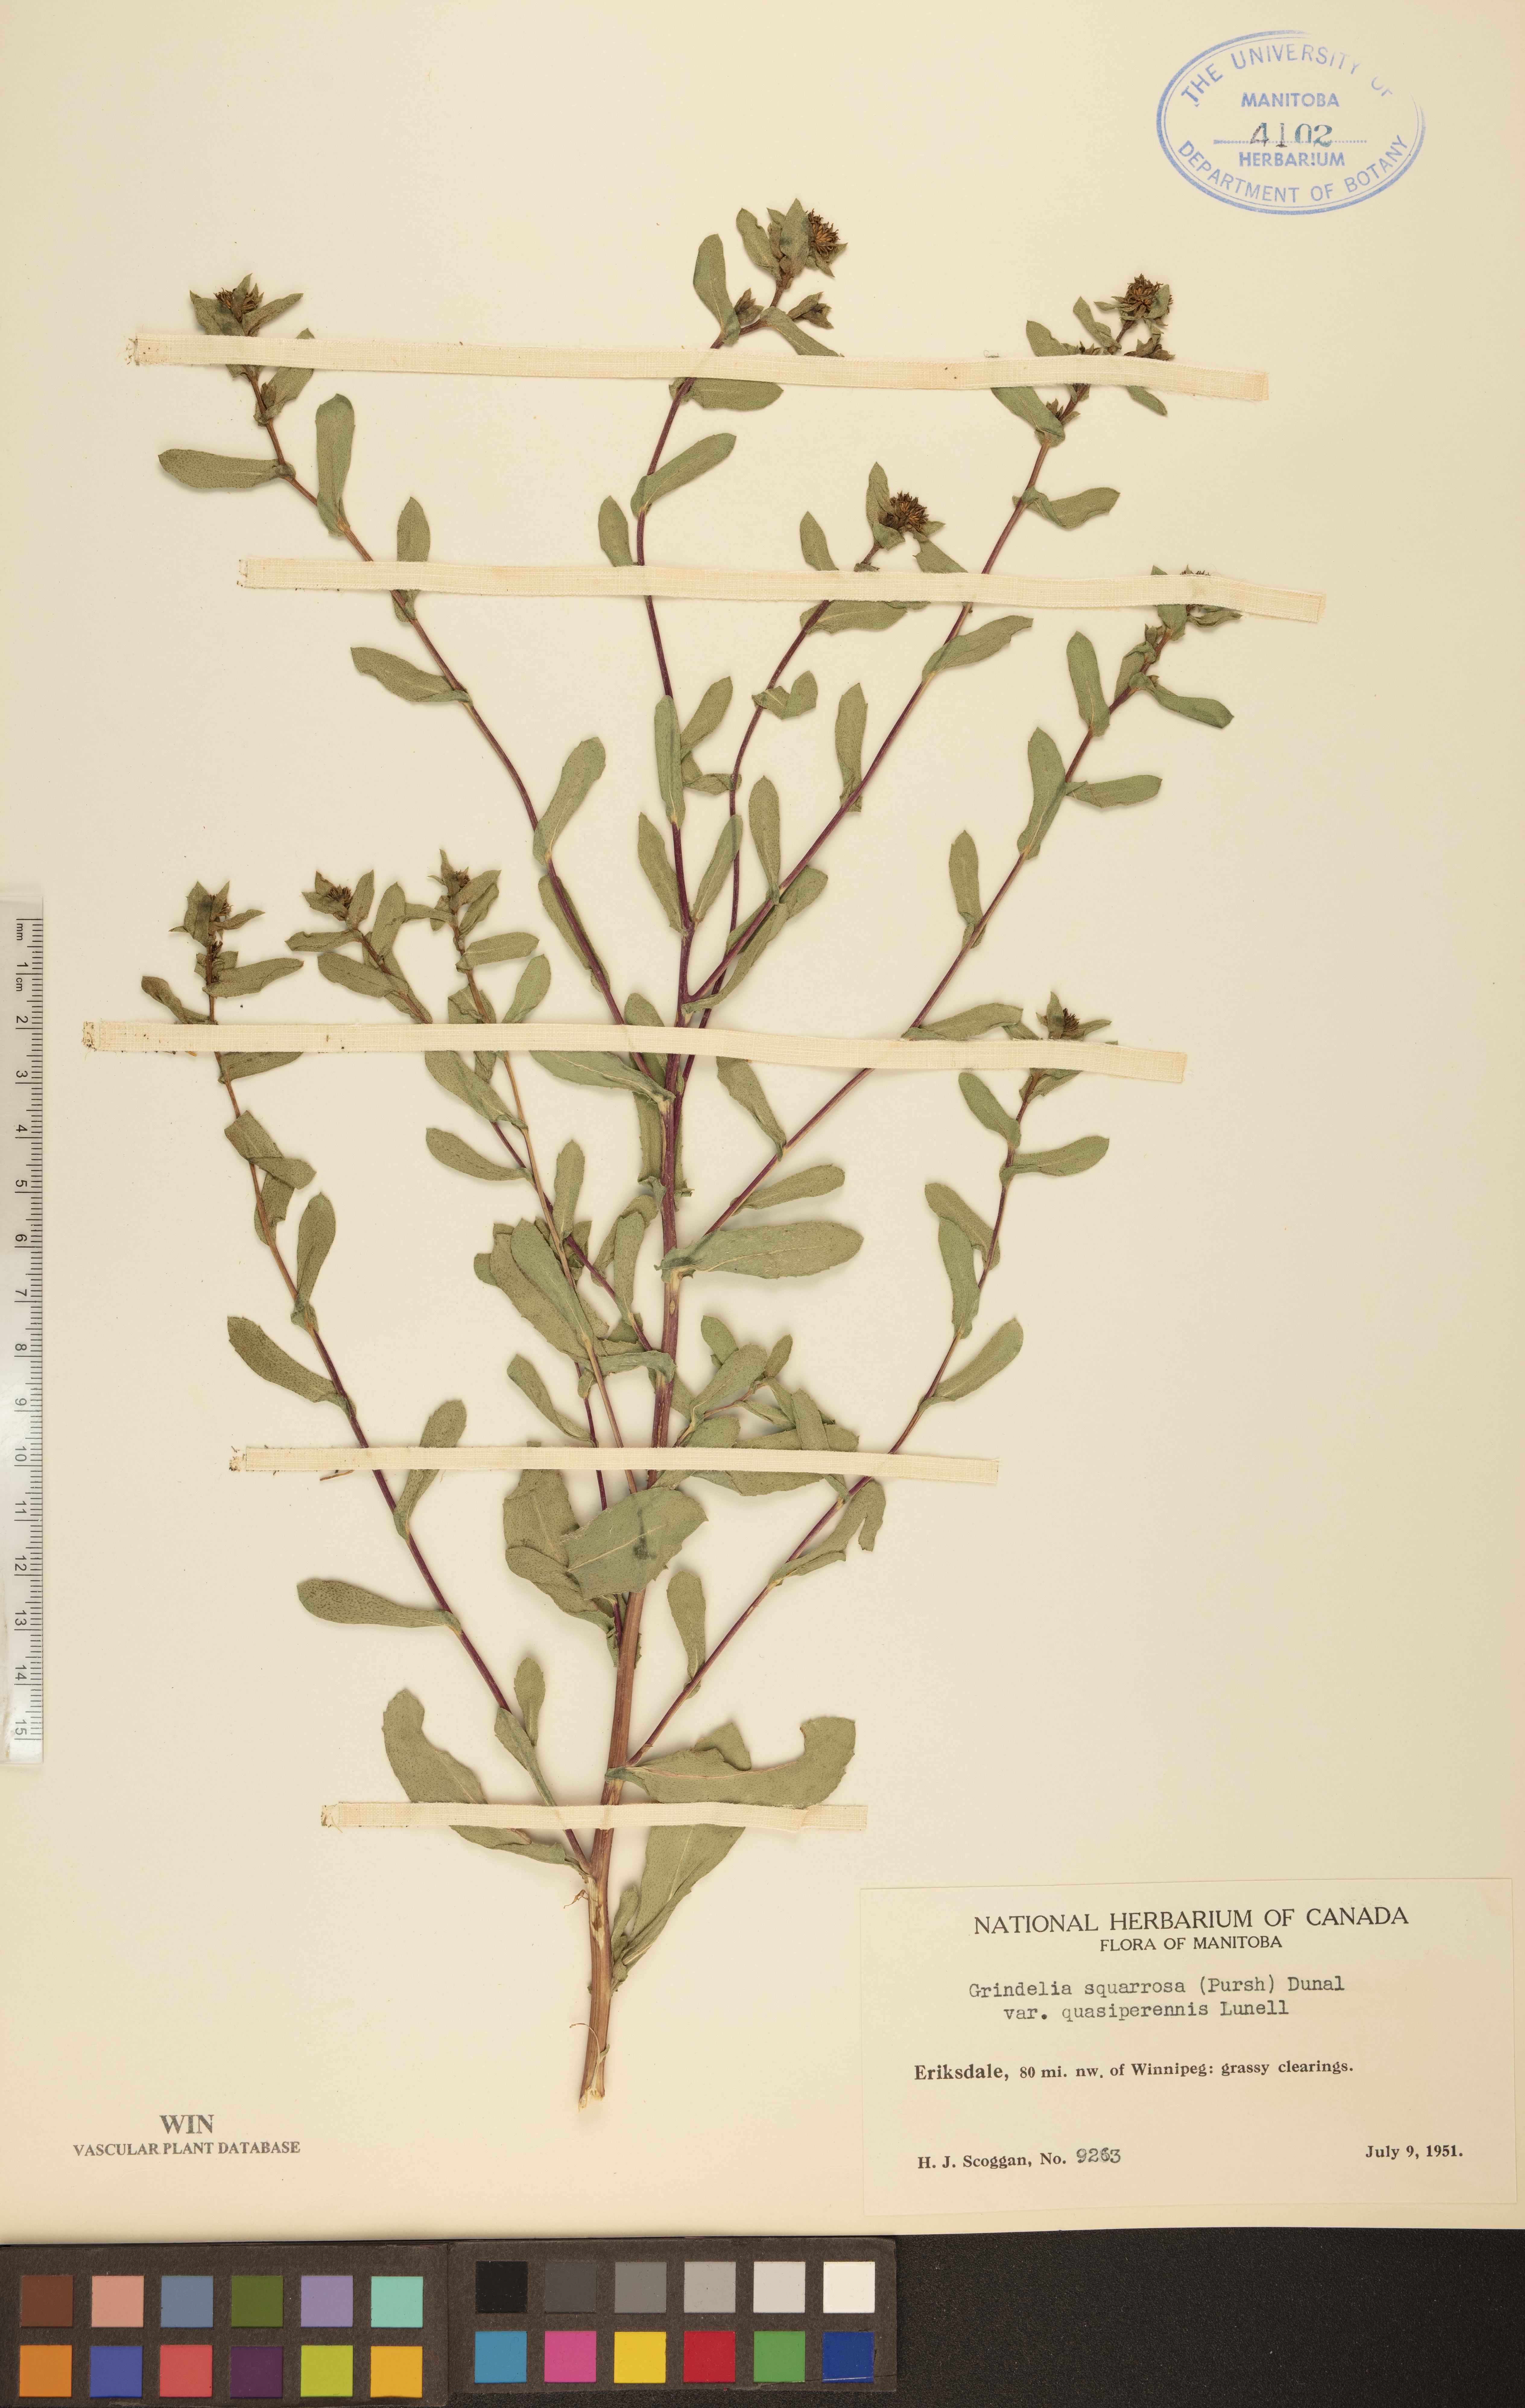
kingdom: Plantae
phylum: Tracheophyta
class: Magnoliopsida
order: Asterales
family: Asteraceae
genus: Grindelia
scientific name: Grindelia hirsutula
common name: Hairy gumweed
